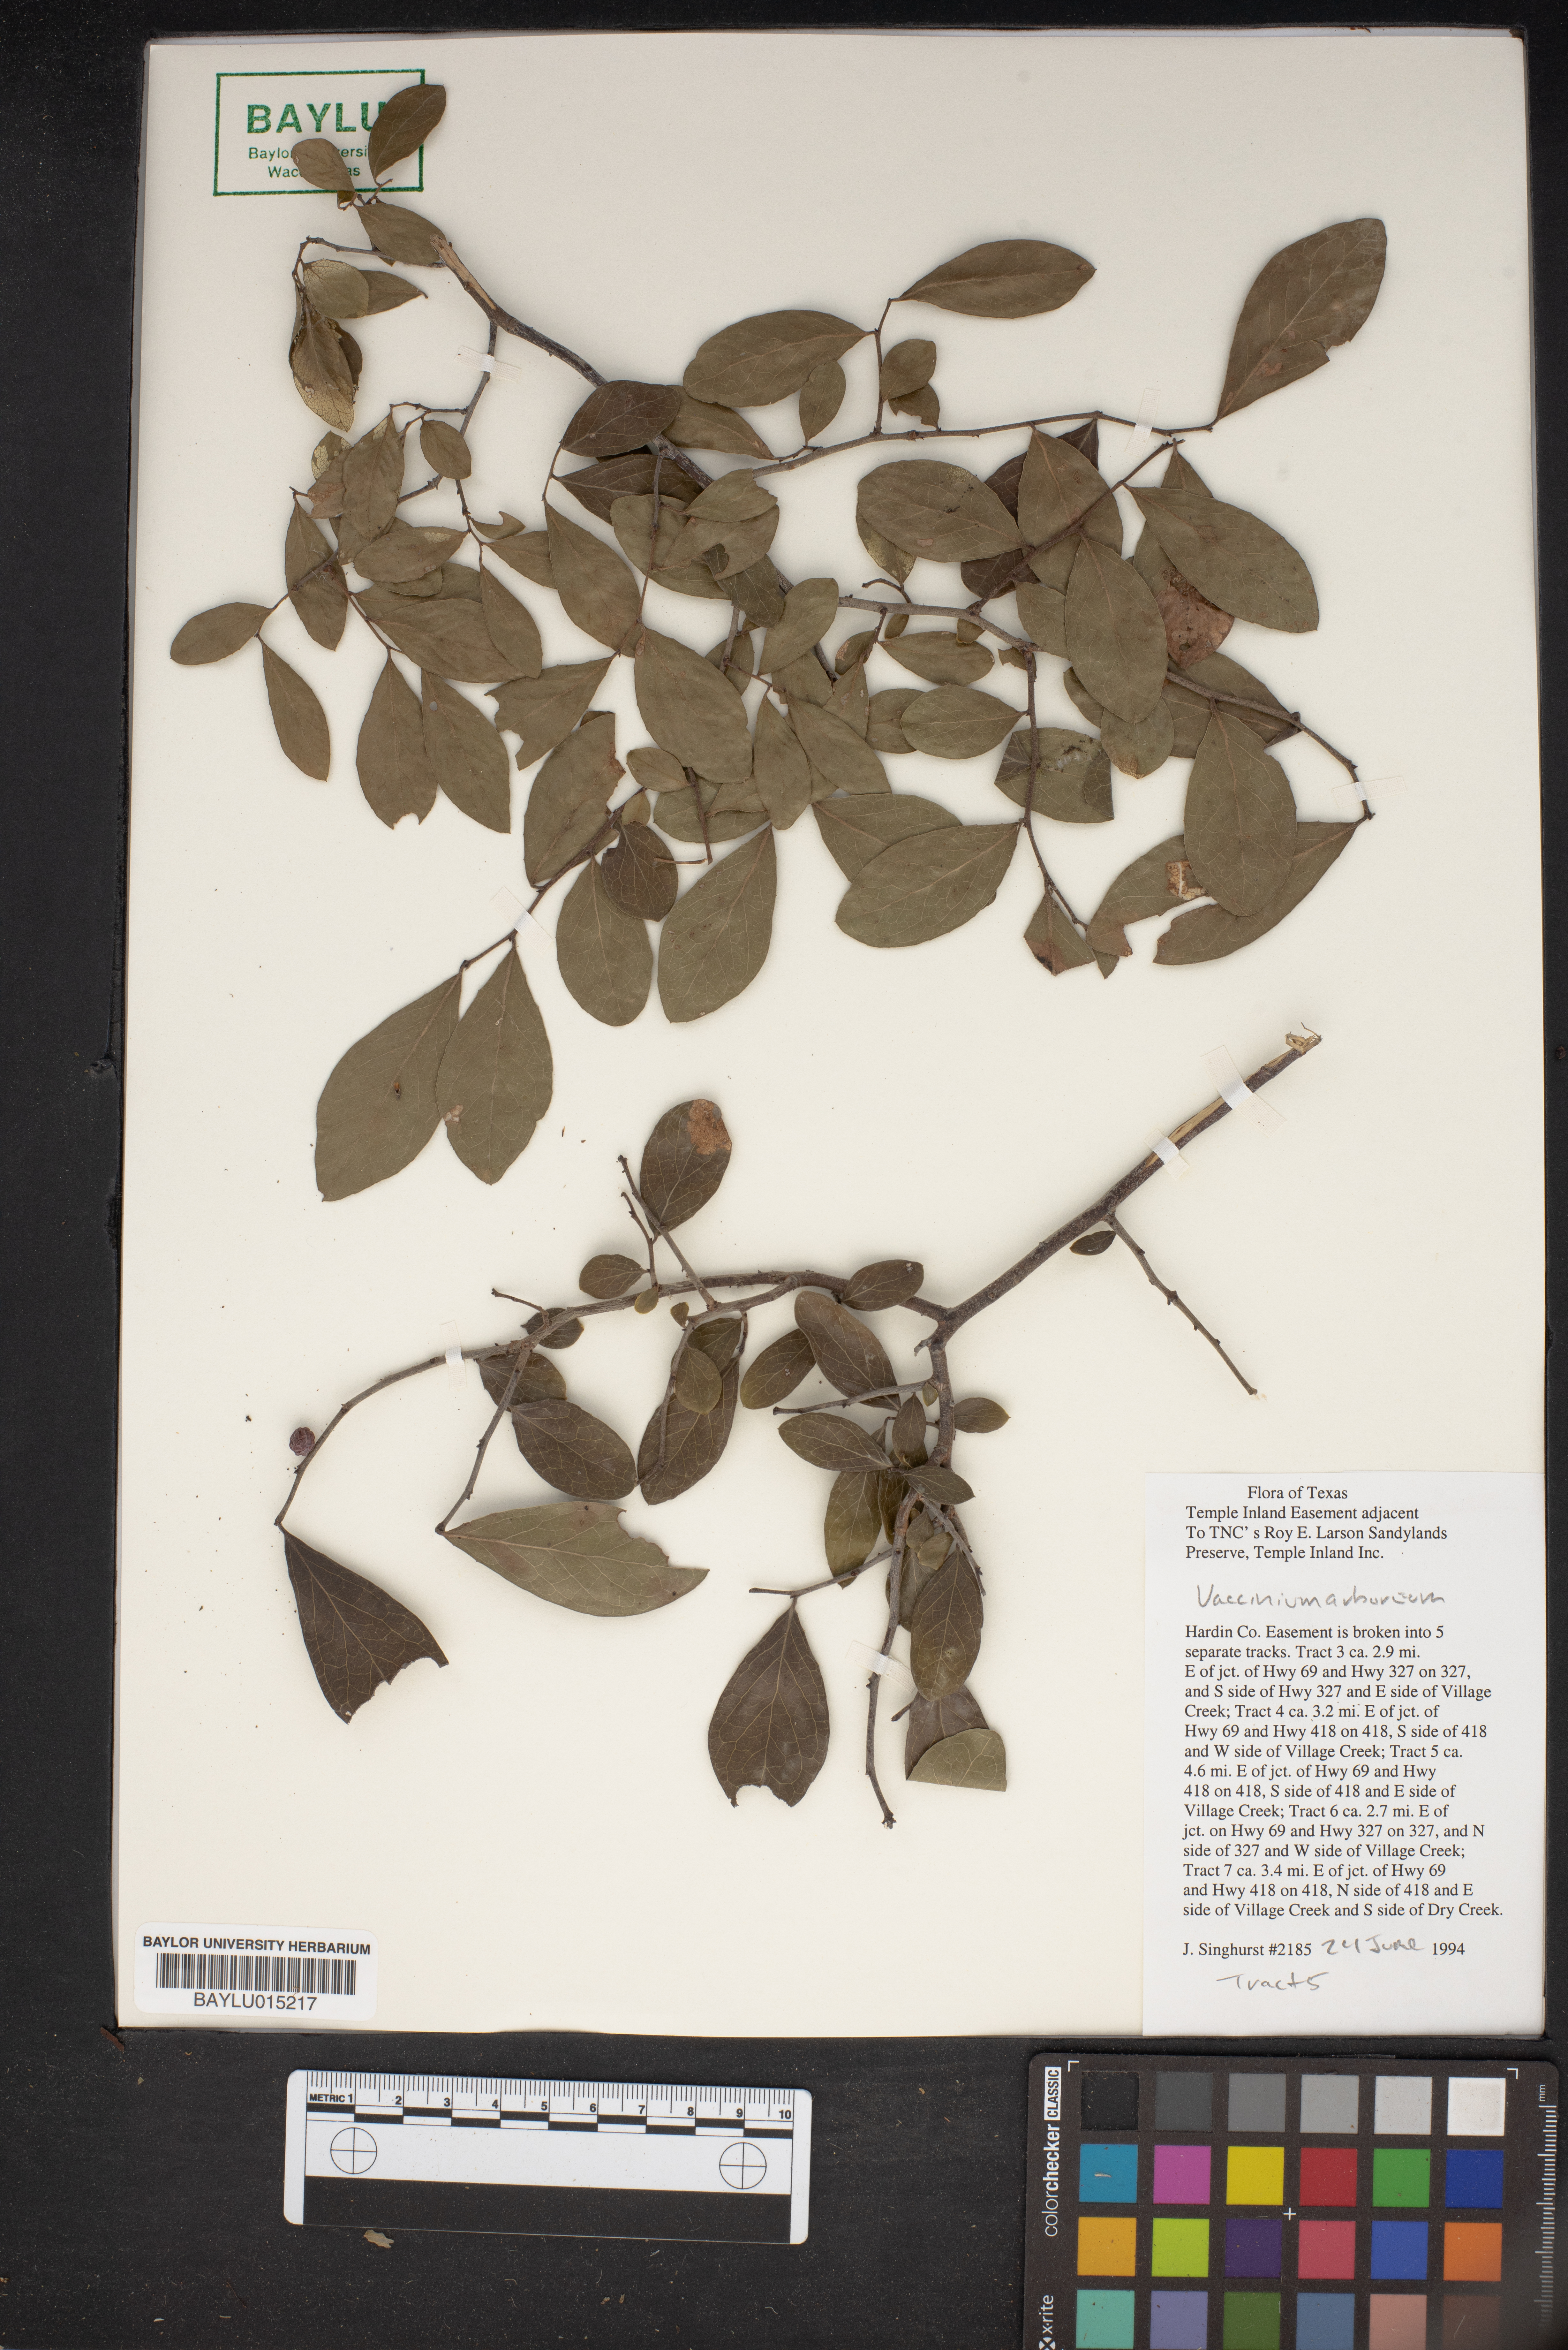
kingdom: Plantae
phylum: Tracheophyta
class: Magnoliopsida
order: Ericales
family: Ericaceae
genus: Vaccinium
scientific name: Vaccinium arboreum
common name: Farkleberry
